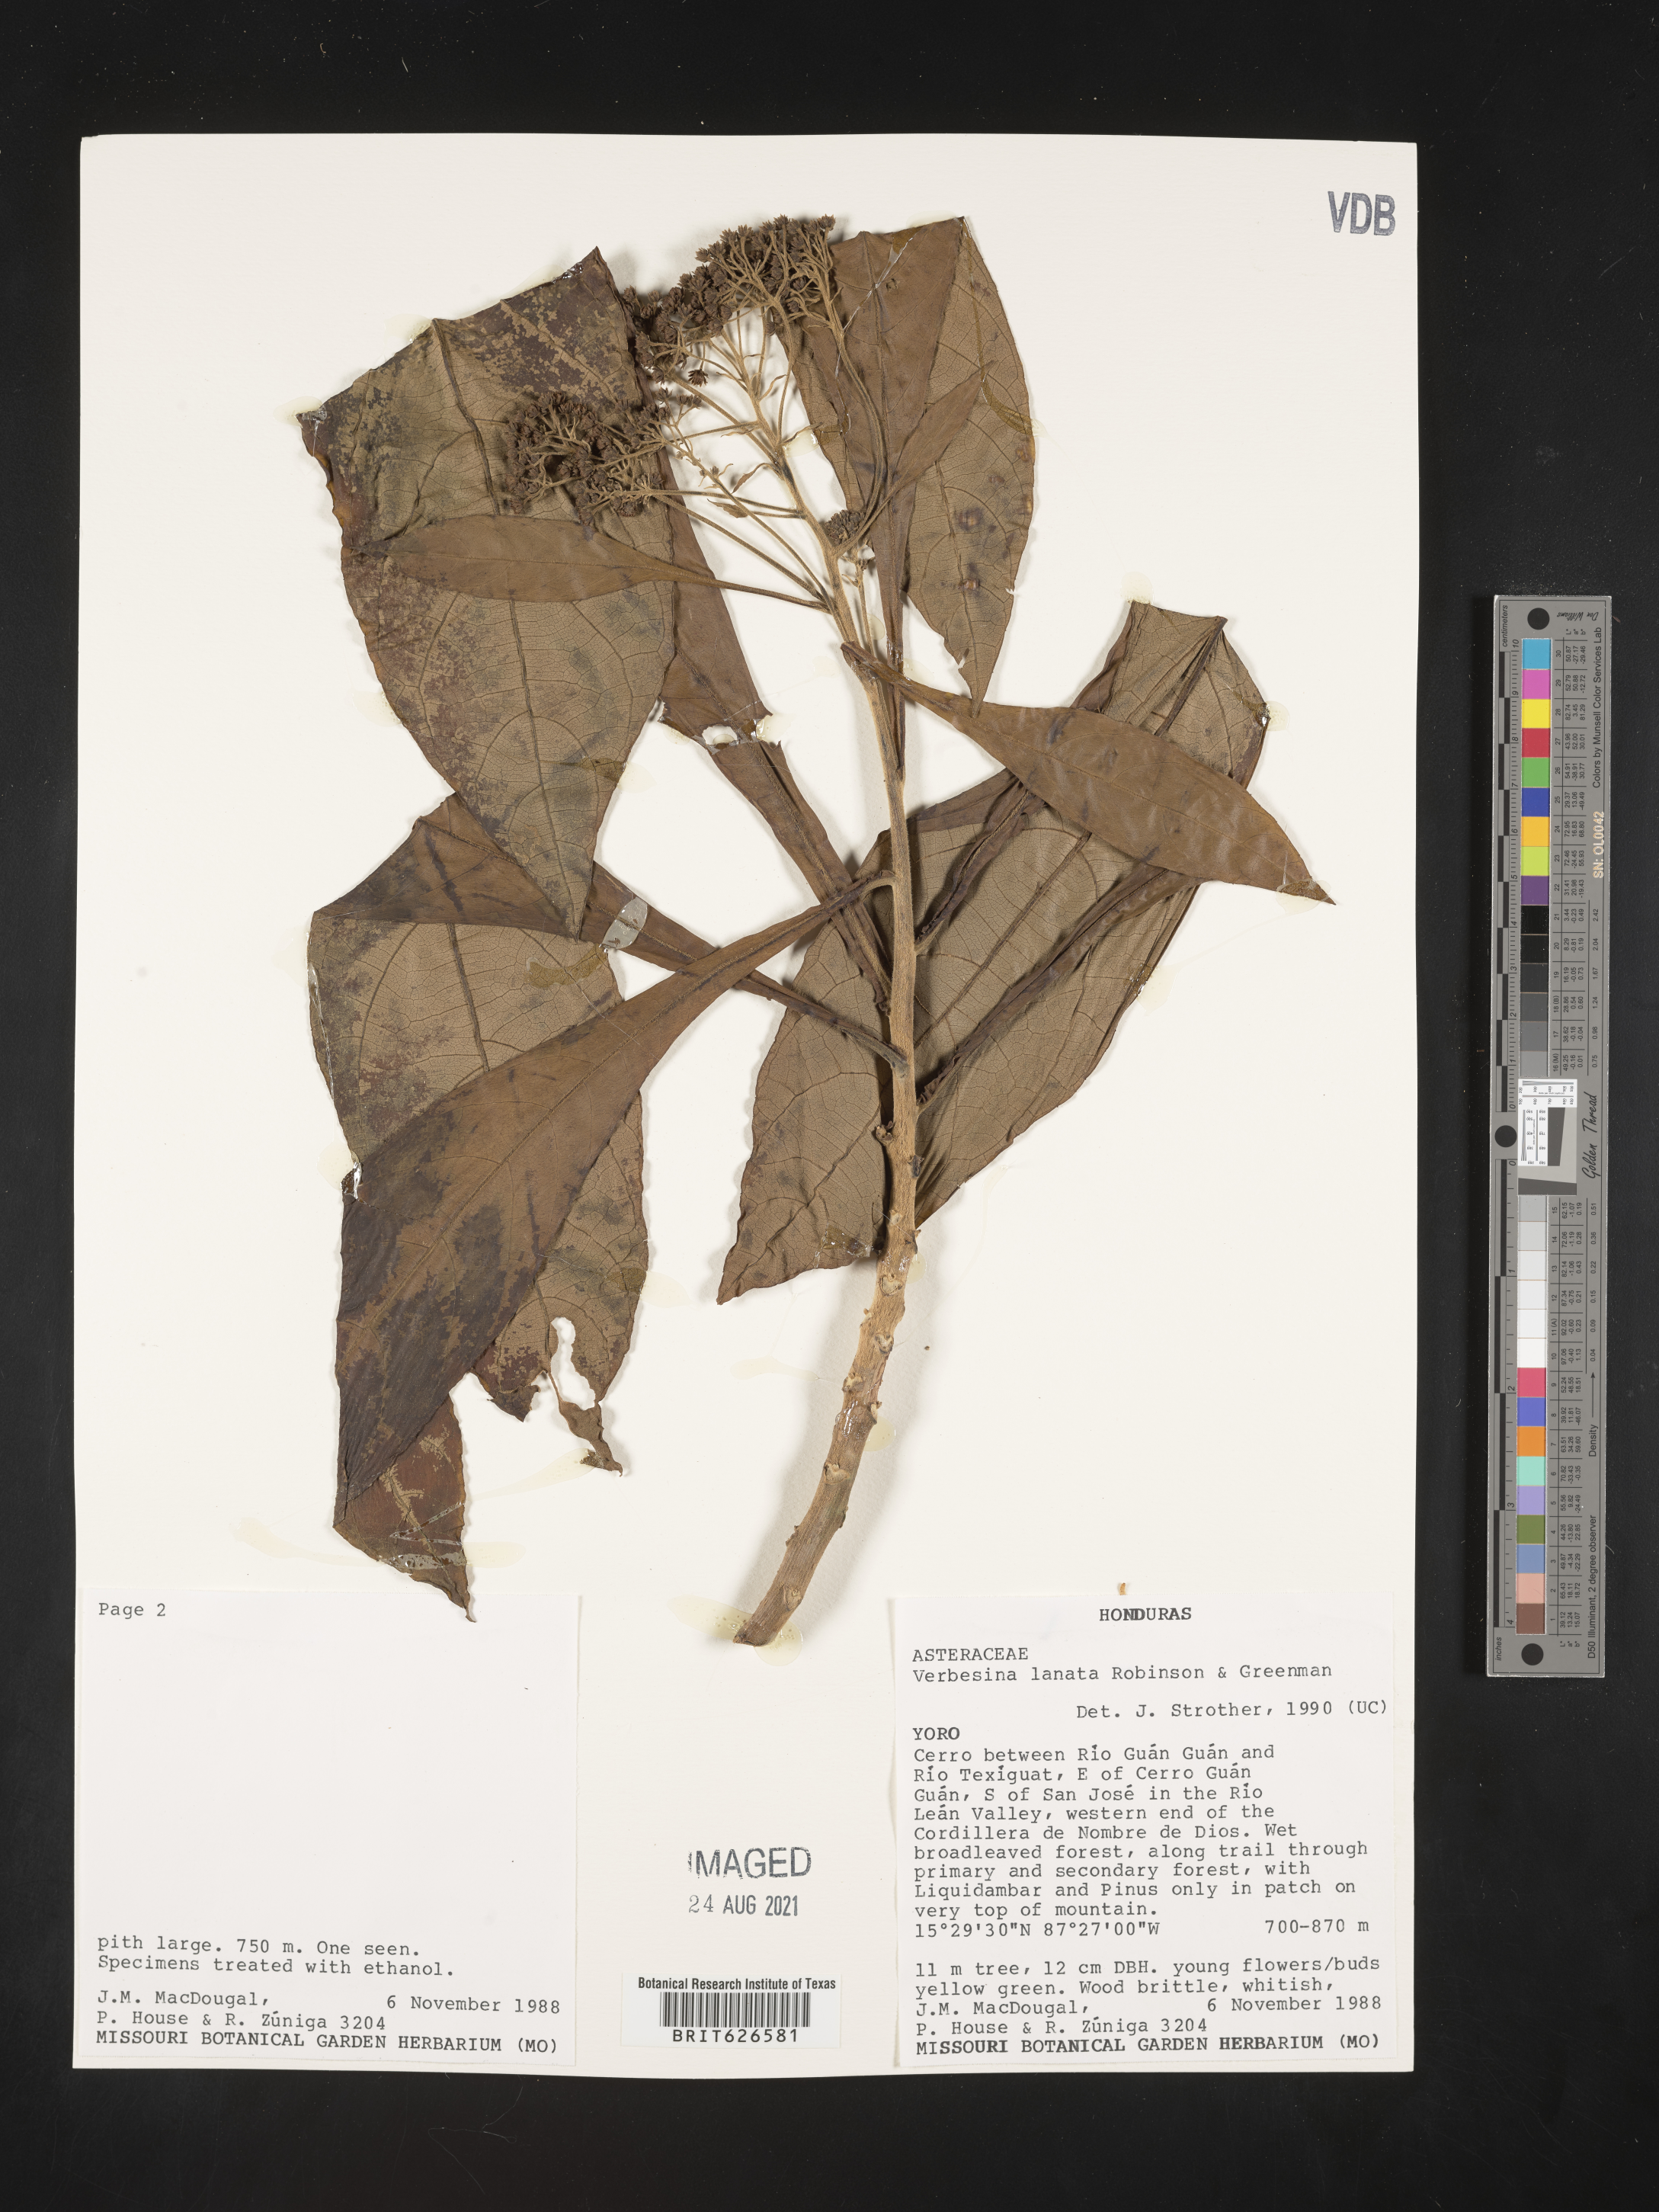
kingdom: Plantae
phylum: Tracheophyta
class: Magnoliopsida
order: Asterales
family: Asteraceae
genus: Verbesina
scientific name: Verbesina lanata
